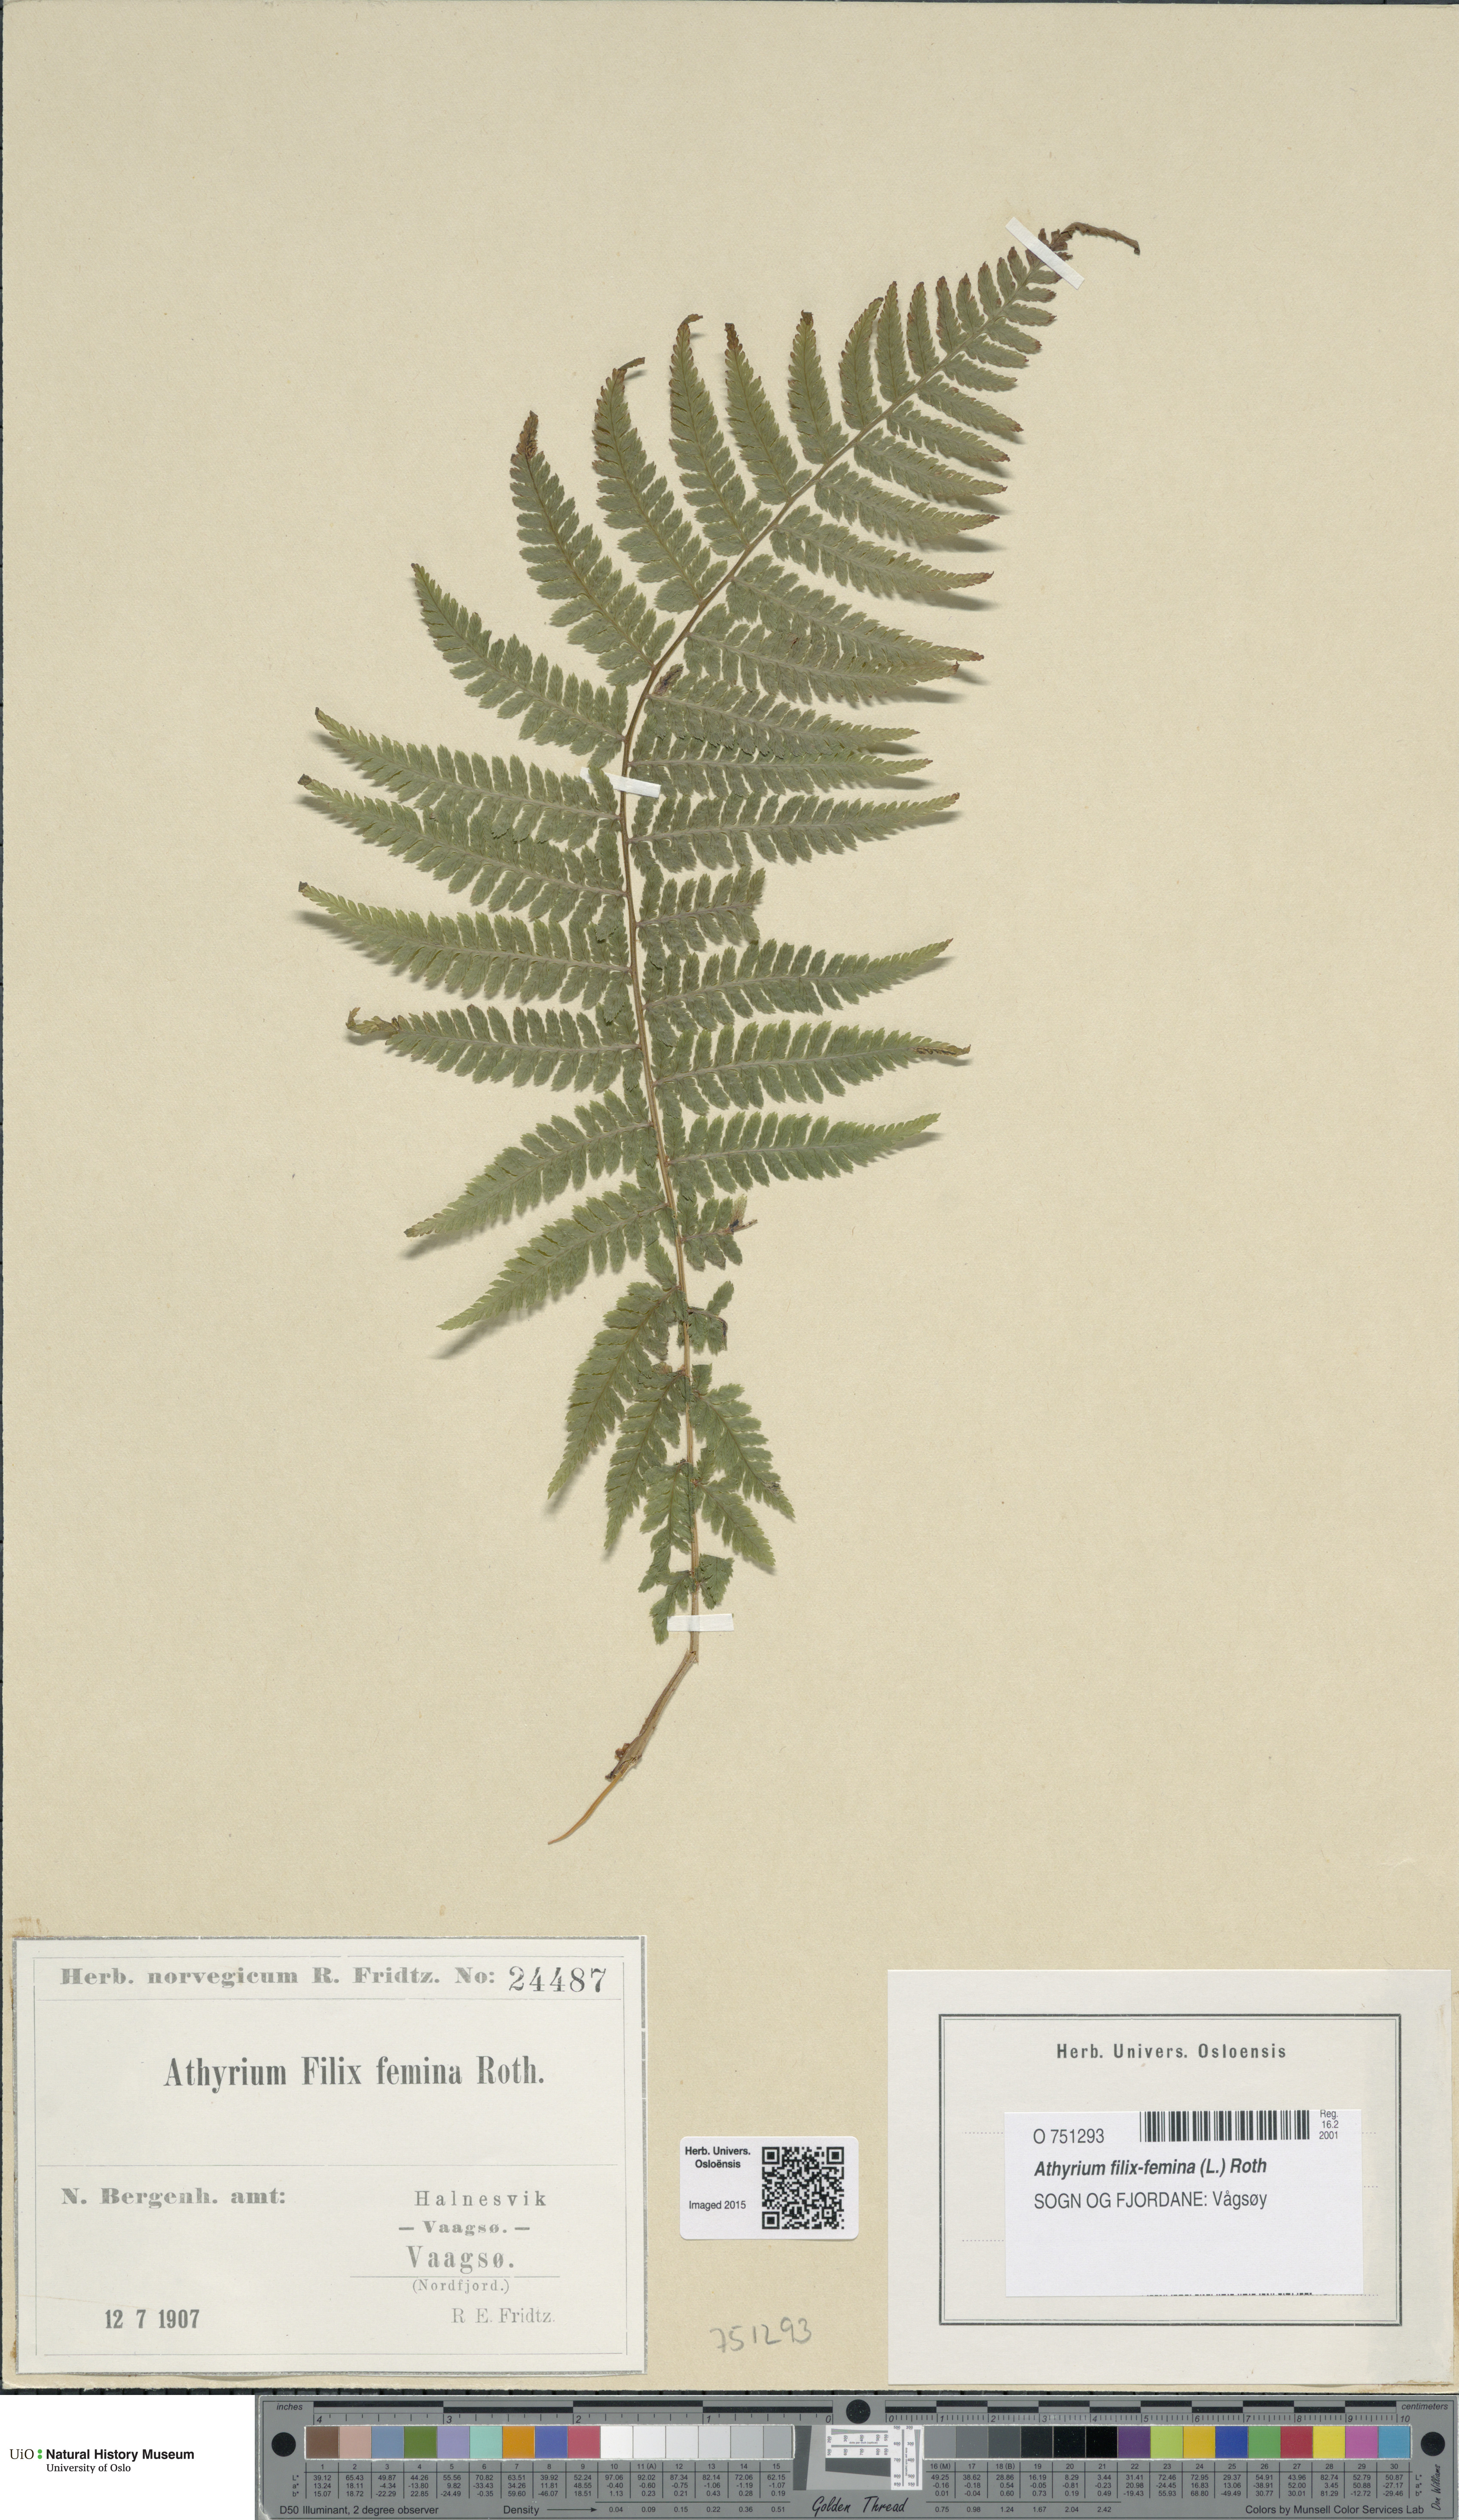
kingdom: Plantae
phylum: Tracheophyta
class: Polypodiopsida
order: Polypodiales
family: Athyriaceae
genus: Athyrium
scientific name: Athyrium filix-femina
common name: Lady fern
